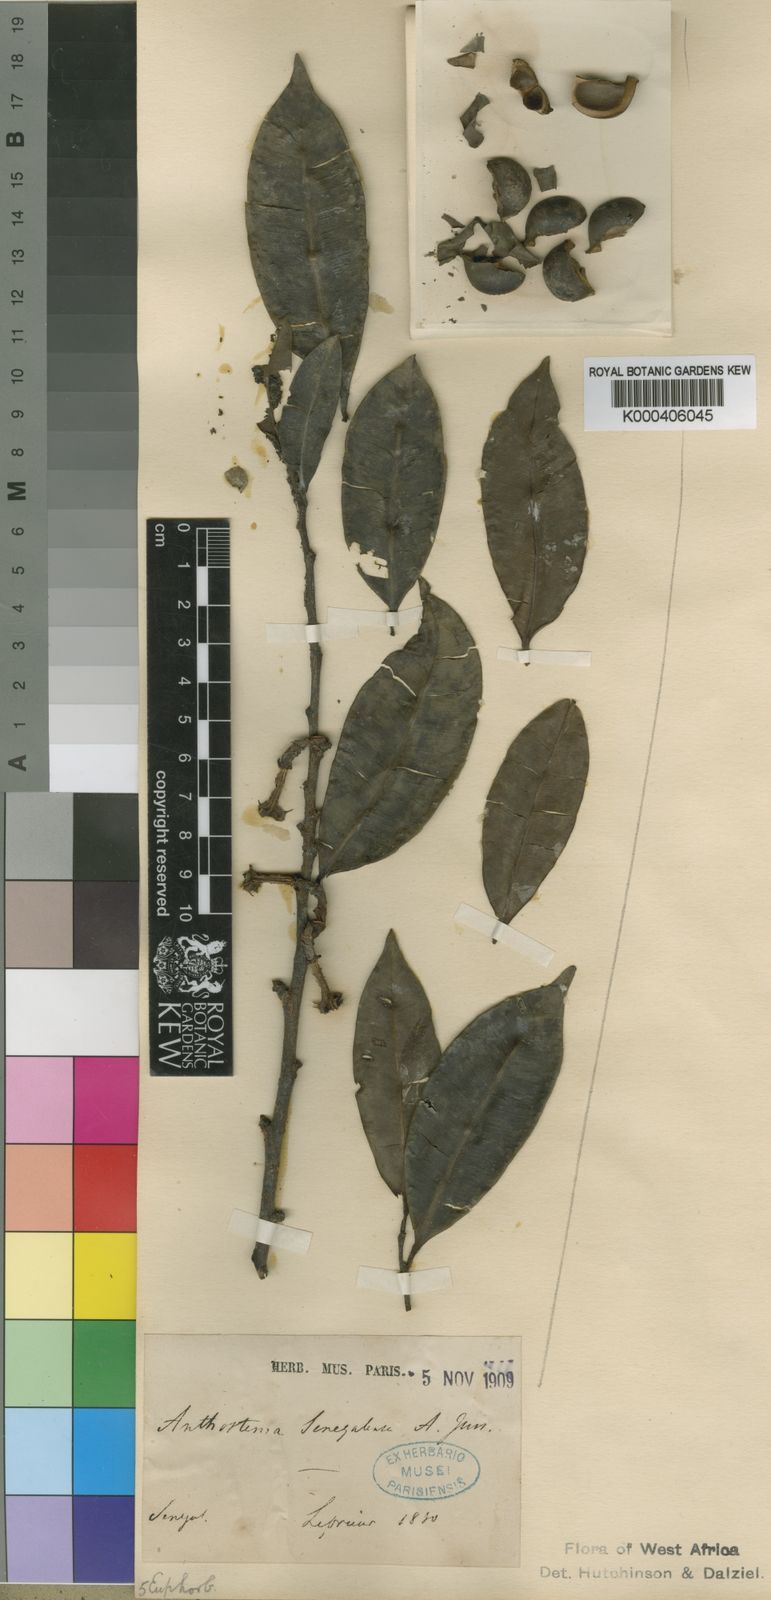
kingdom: Plantae
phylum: Tracheophyta
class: Magnoliopsida
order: Malpighiales
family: Euphorbiaceae
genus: Anthostema
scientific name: Anthostema senegalense
